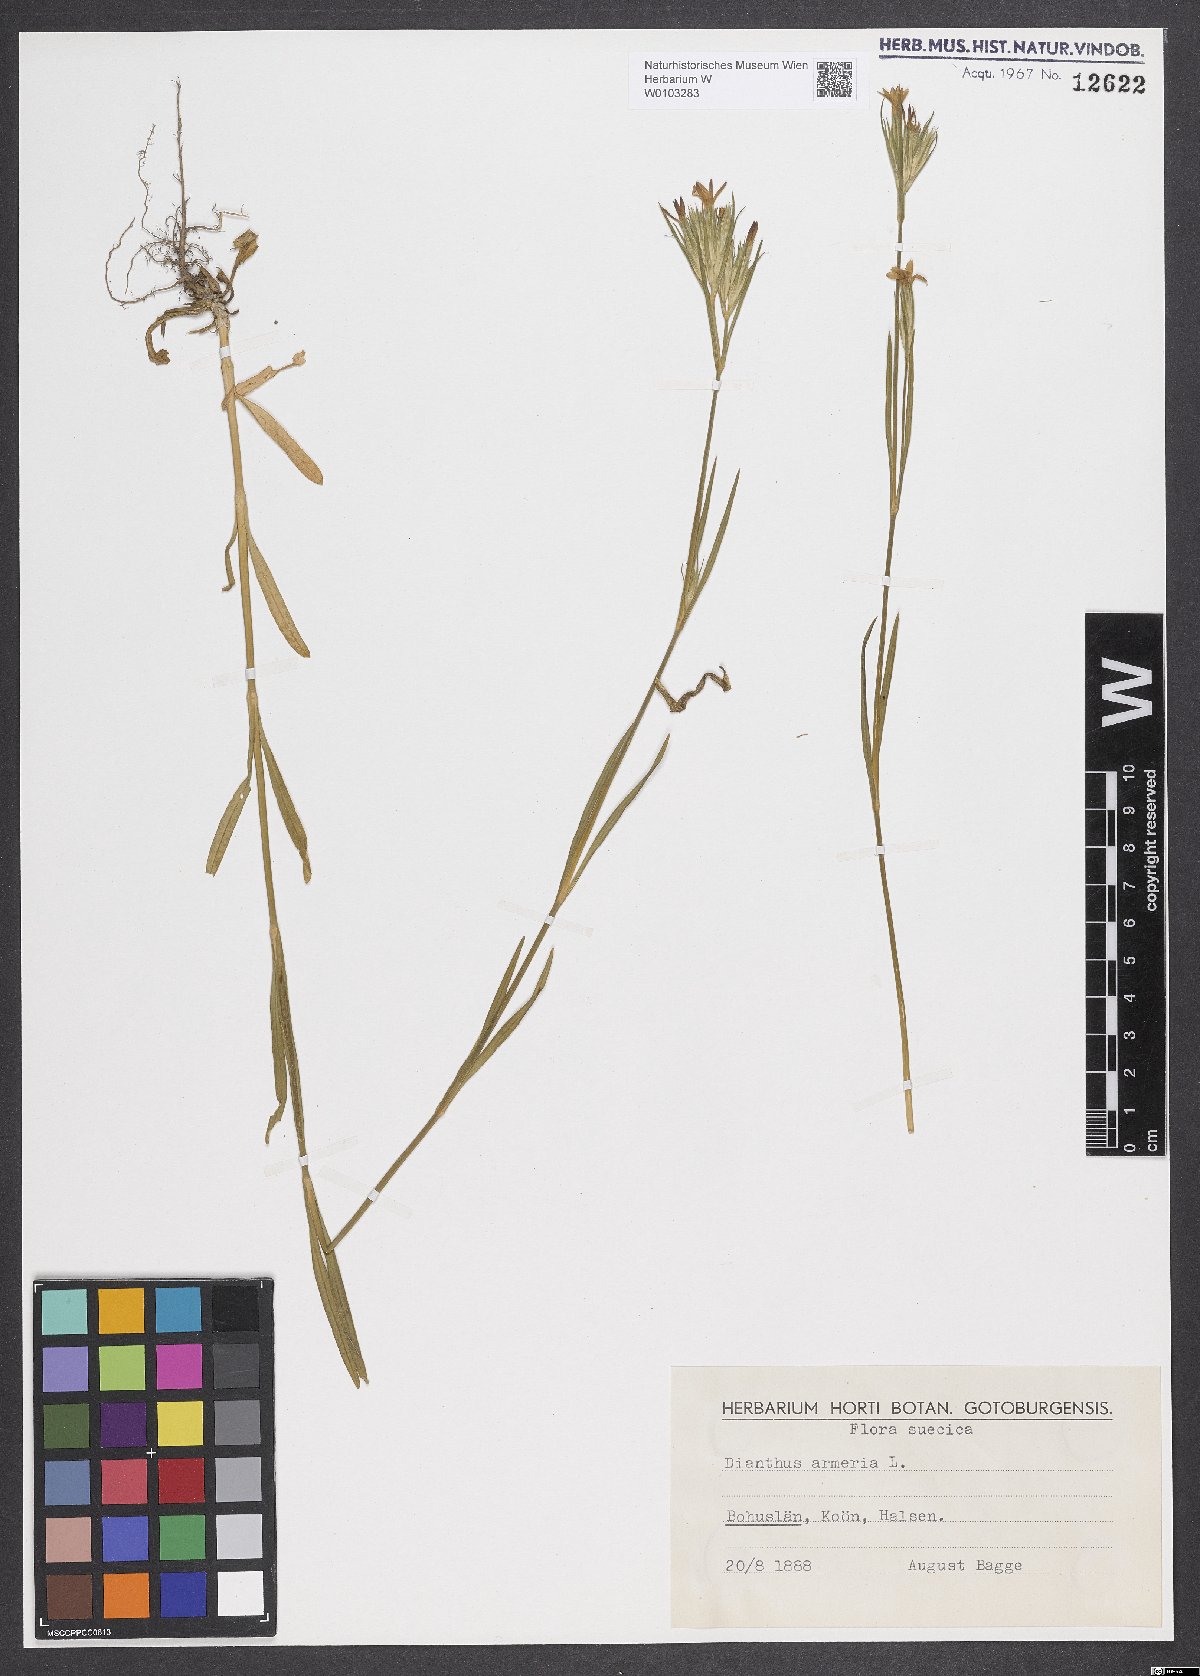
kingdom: Plantae
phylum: Tracheophyta
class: Magnoliopsida
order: Caryophyllales
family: Caryophyllaceae
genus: Dianthus
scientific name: Dianthus armeria
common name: Deptford pink
